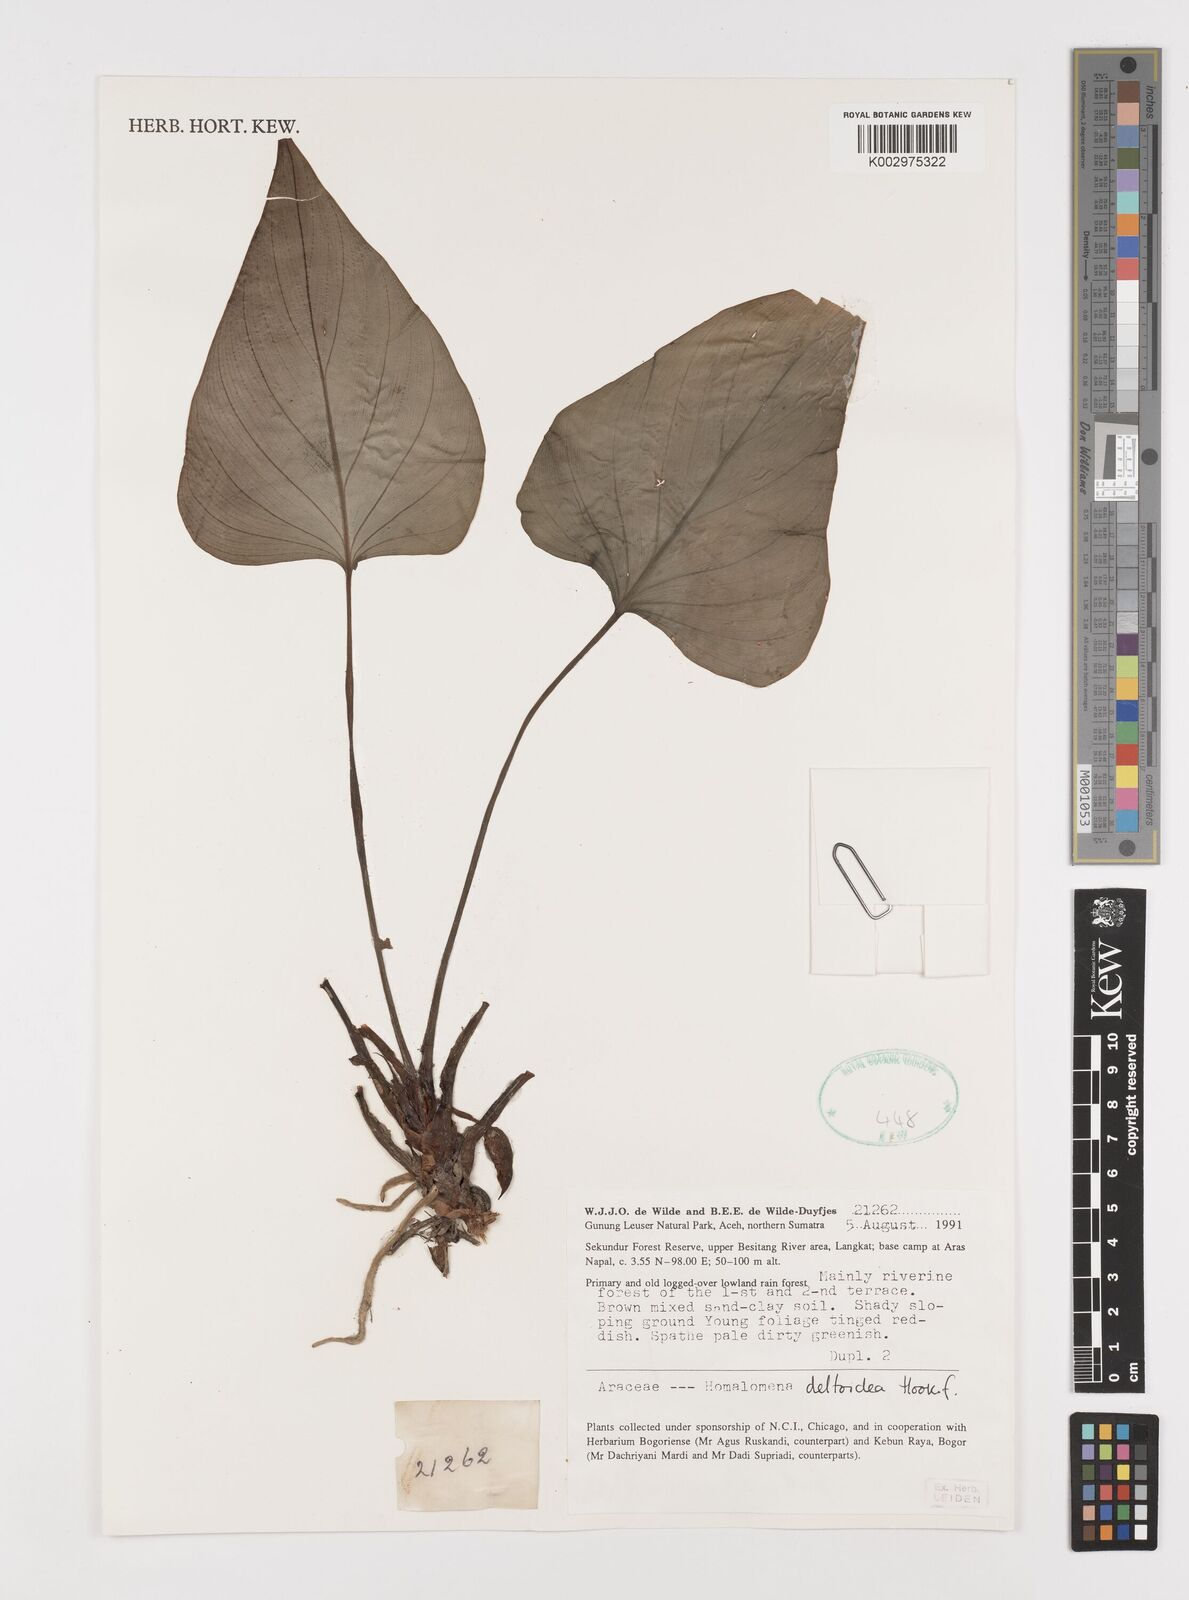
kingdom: Plantae
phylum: Tracheophyta
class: Liliopsida
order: Alismatales
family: Araceae
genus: Homalomena
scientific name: Homalomena griffithii
